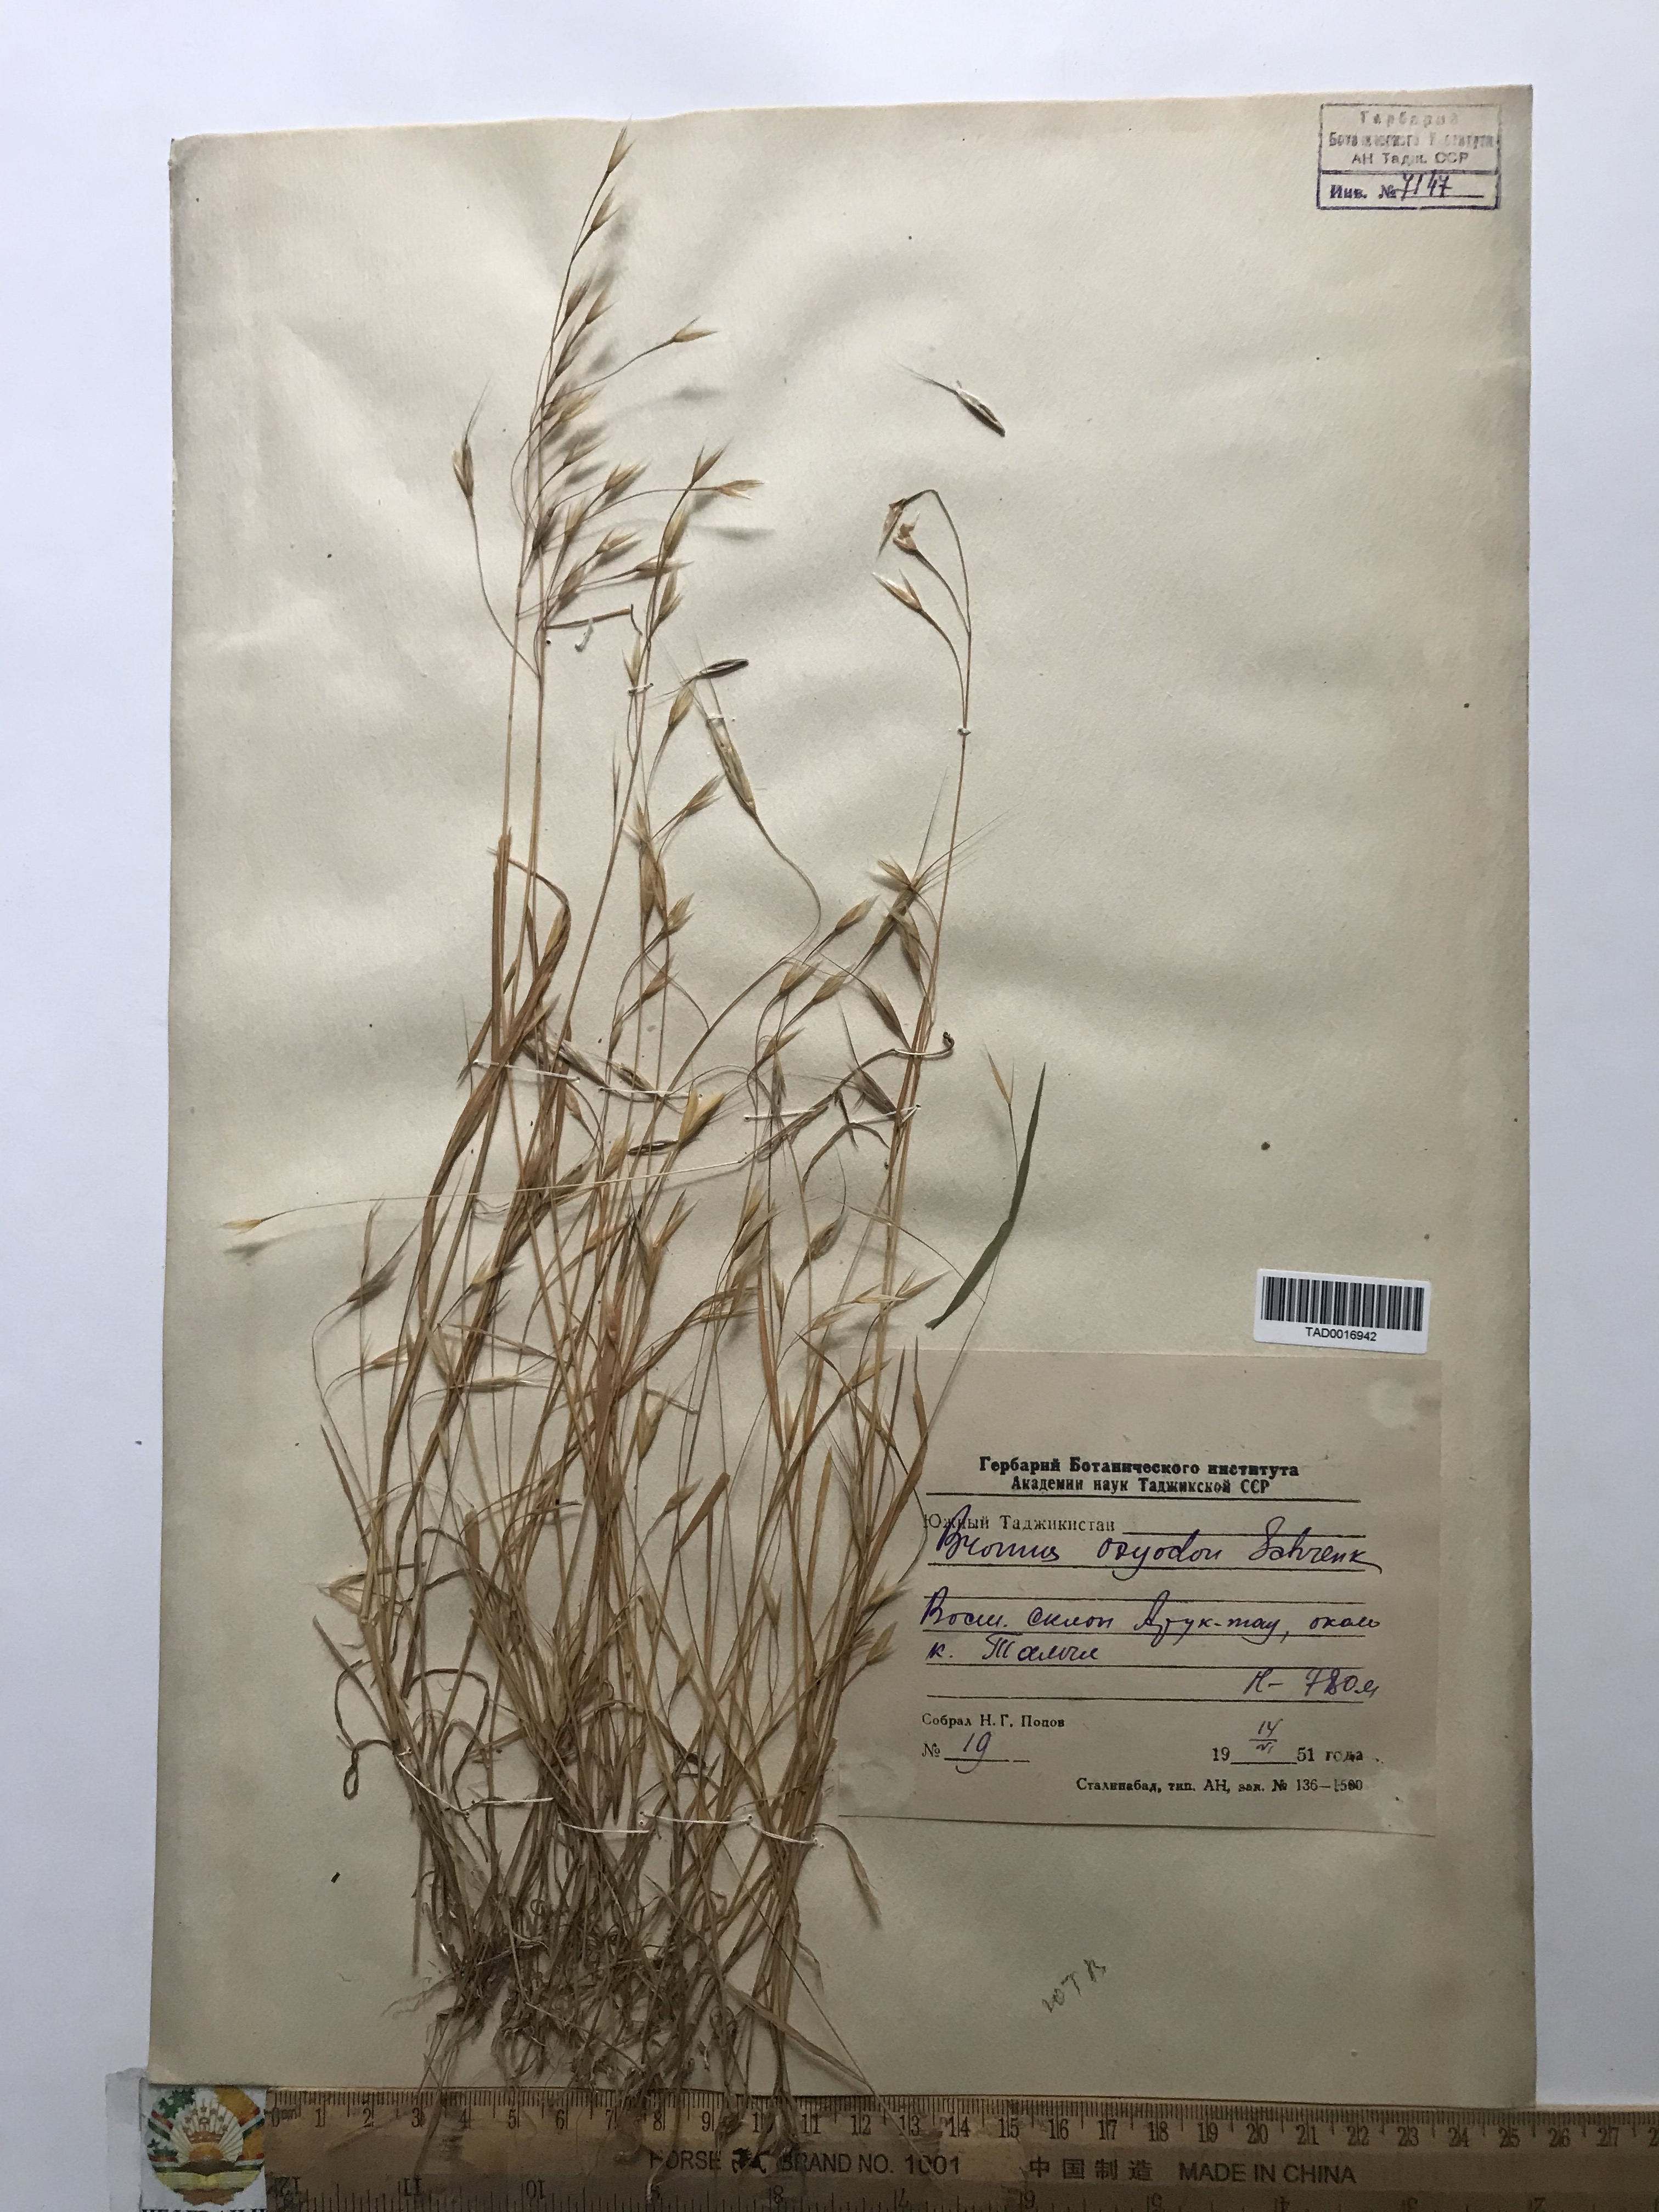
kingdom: Plantae
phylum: Tracheophyta
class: Liliopsida
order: Poales
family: Poaceae
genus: Bromus
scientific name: Bromus oxyodon
